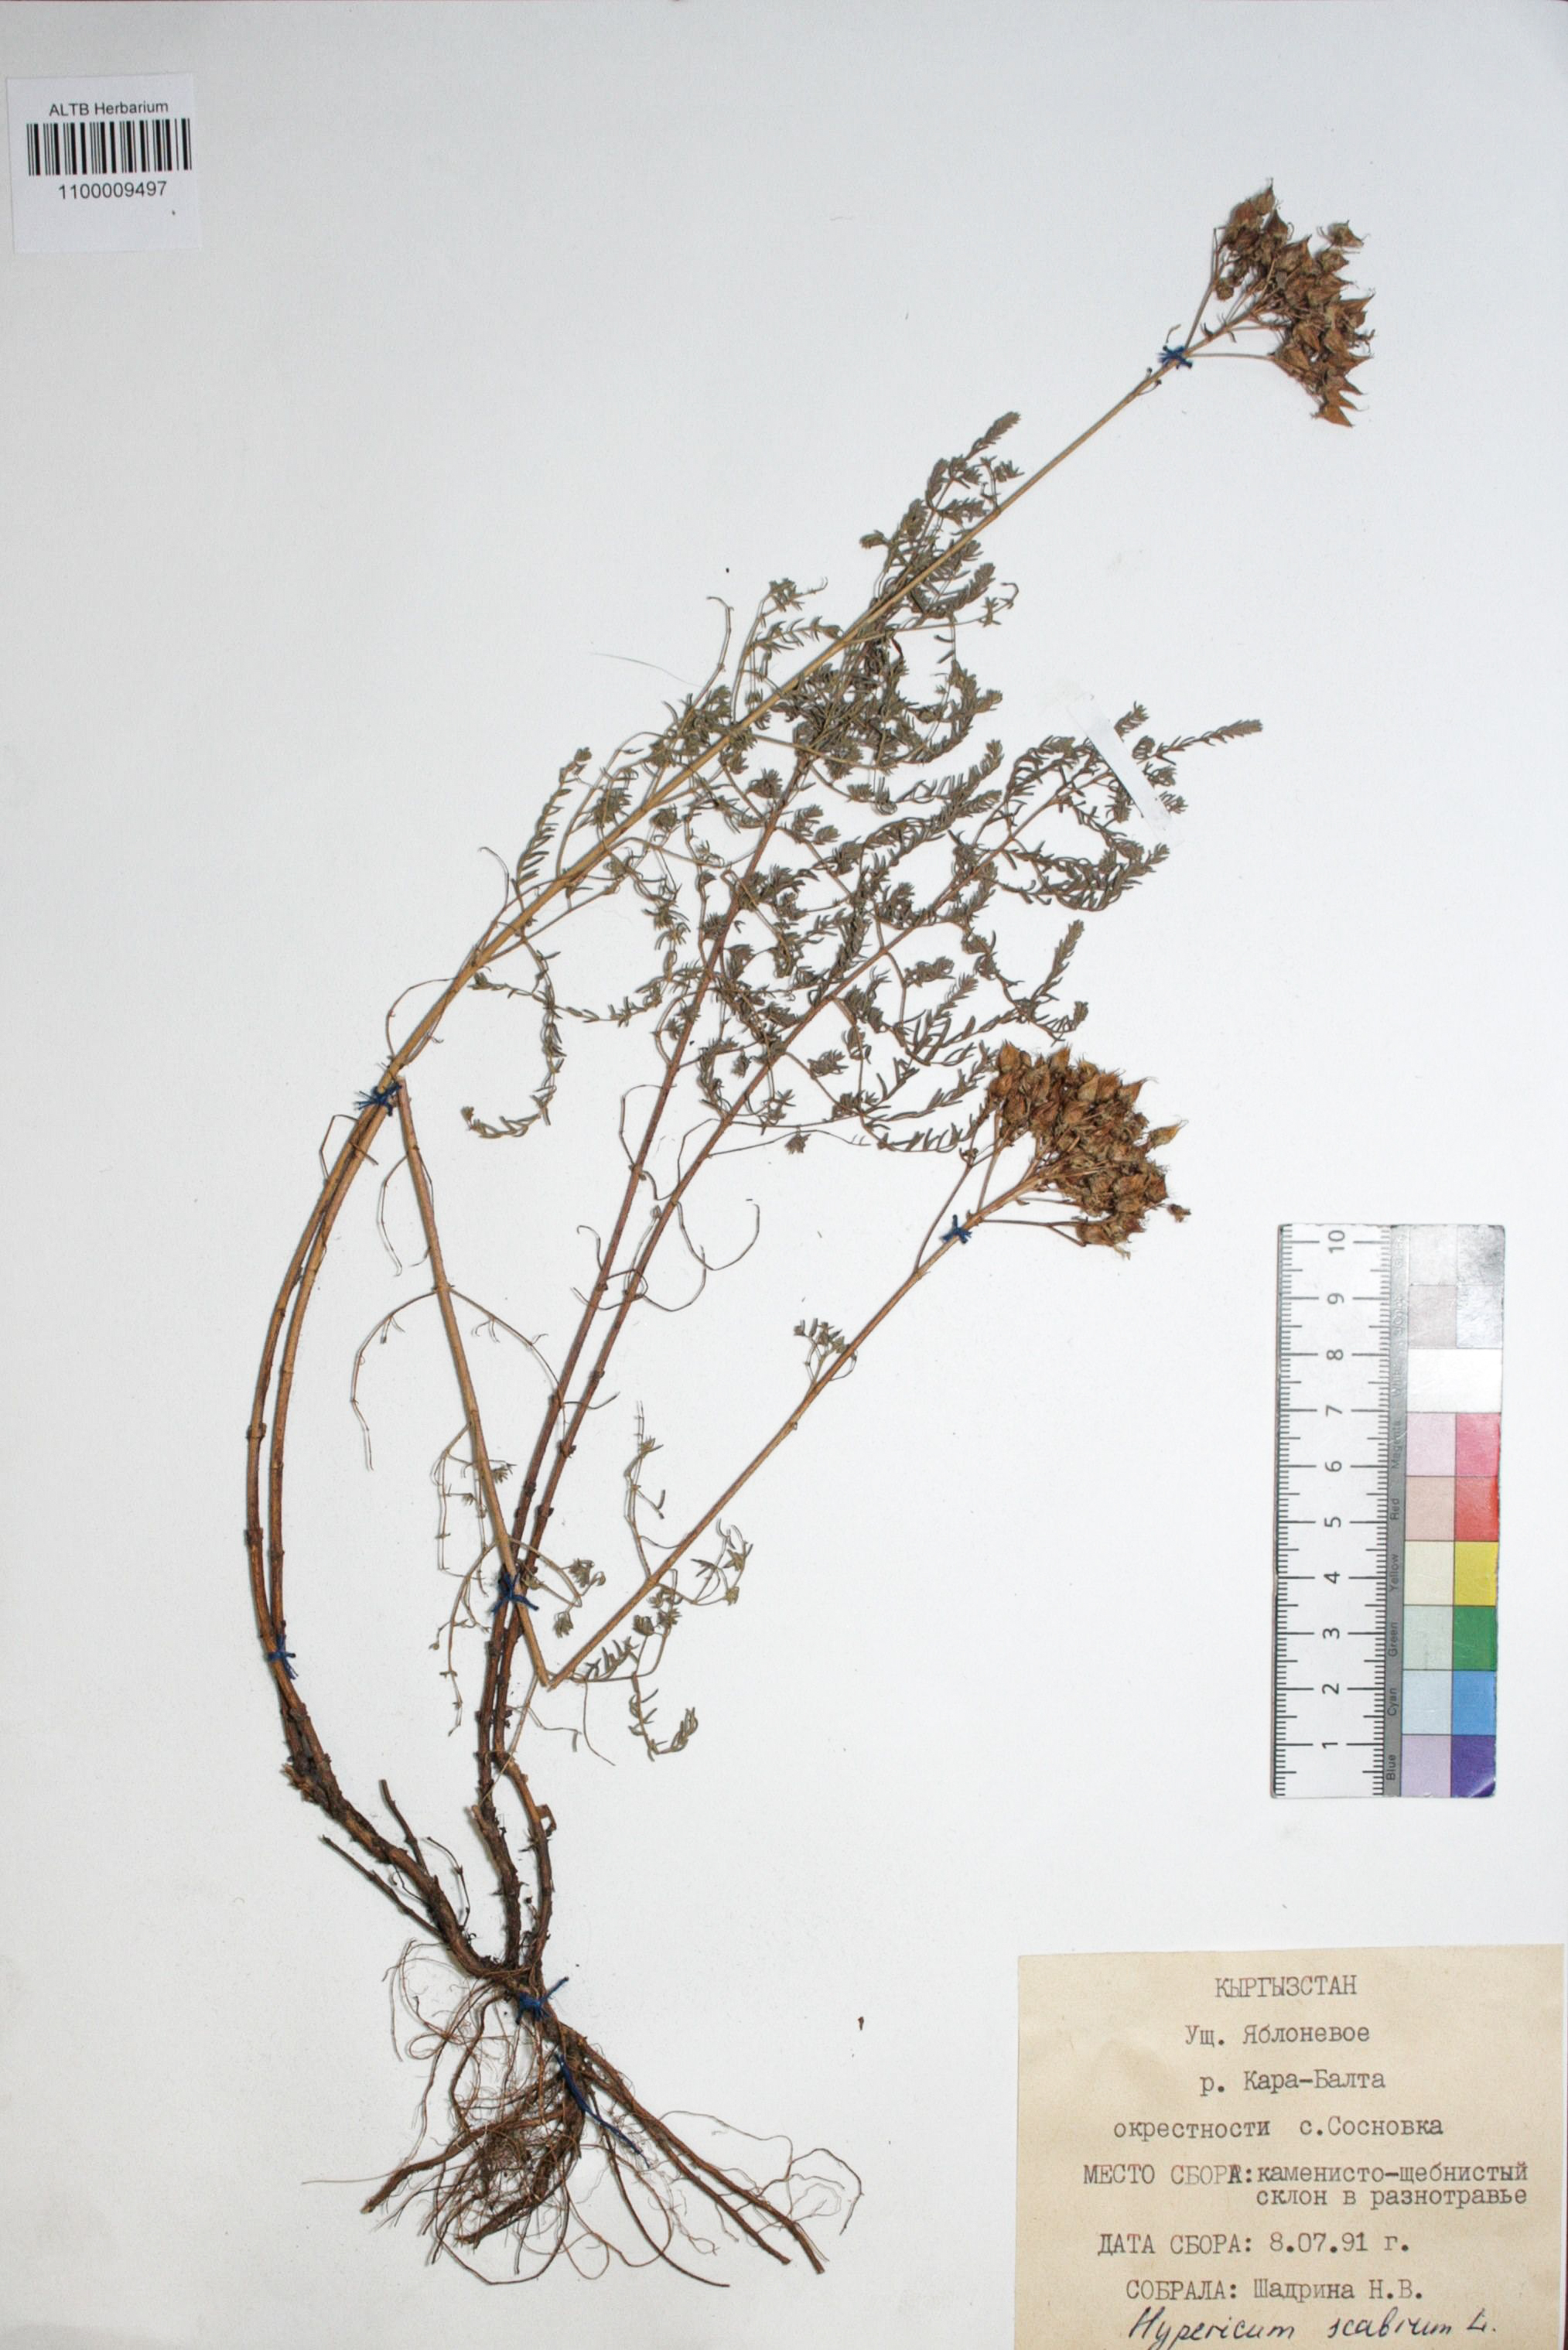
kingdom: Plantae
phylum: Tracheophyta
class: Magnoliopsida
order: Malpighiales
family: Hypericaceae
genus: Hypericum
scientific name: Hypericum scabrum
